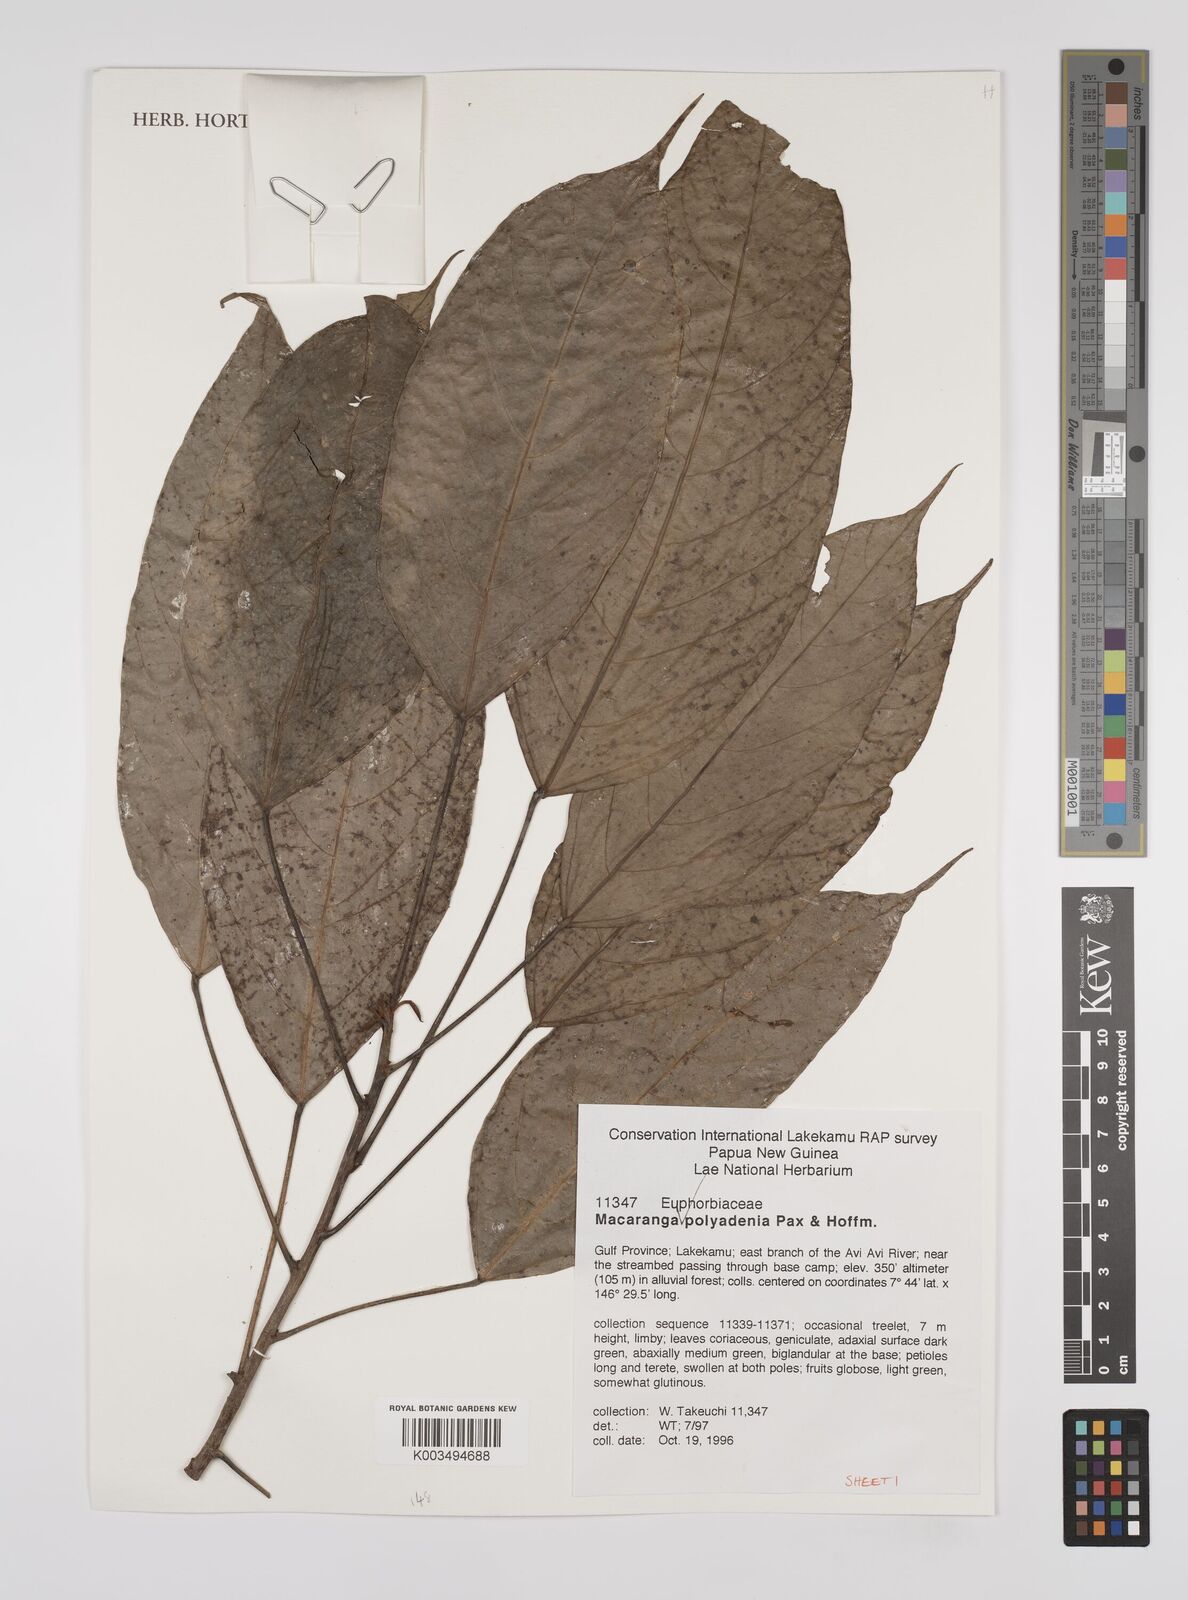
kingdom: Plantae
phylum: Tracheophyta
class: Magnoliopsida
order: Malpighiales
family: Euphorbiaceae
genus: Macaranga
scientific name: Macaranga polyadenia
